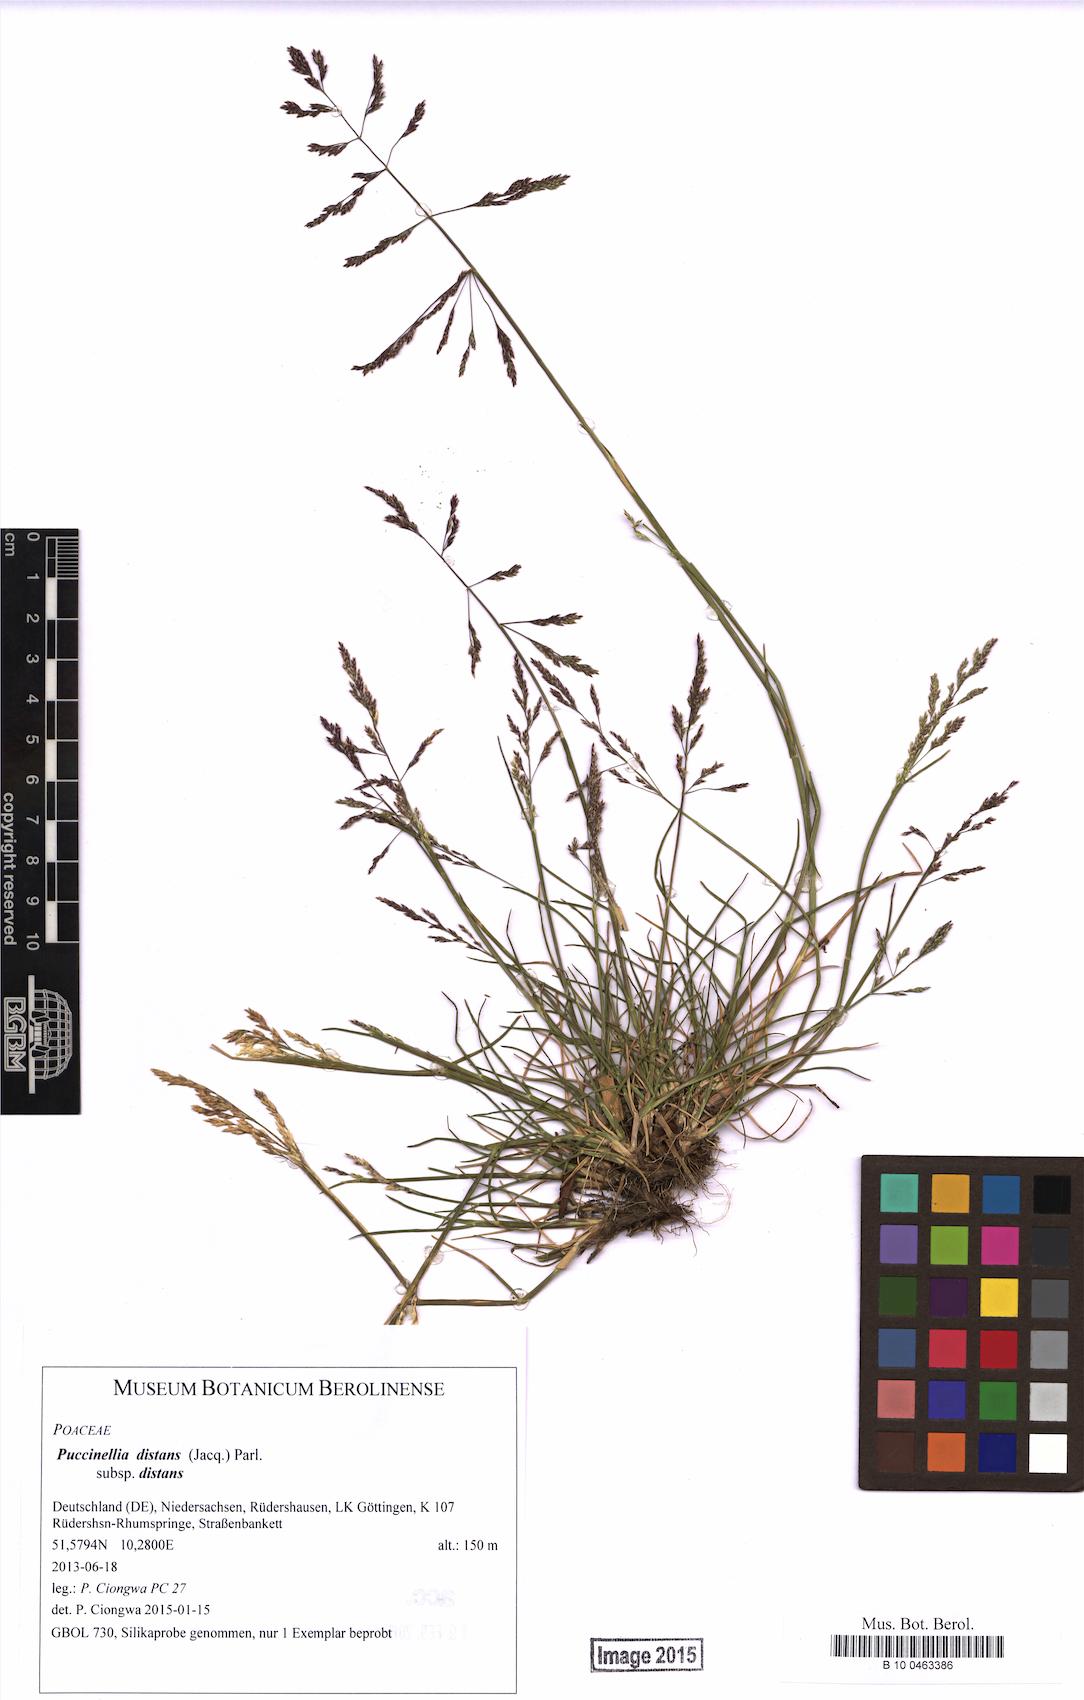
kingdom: Plantae
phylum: Tracheophyta
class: Liliopsida
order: Poales
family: Poaceae
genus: Puccinellia
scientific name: Puccinellia distans
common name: Weeping alkaligrass
